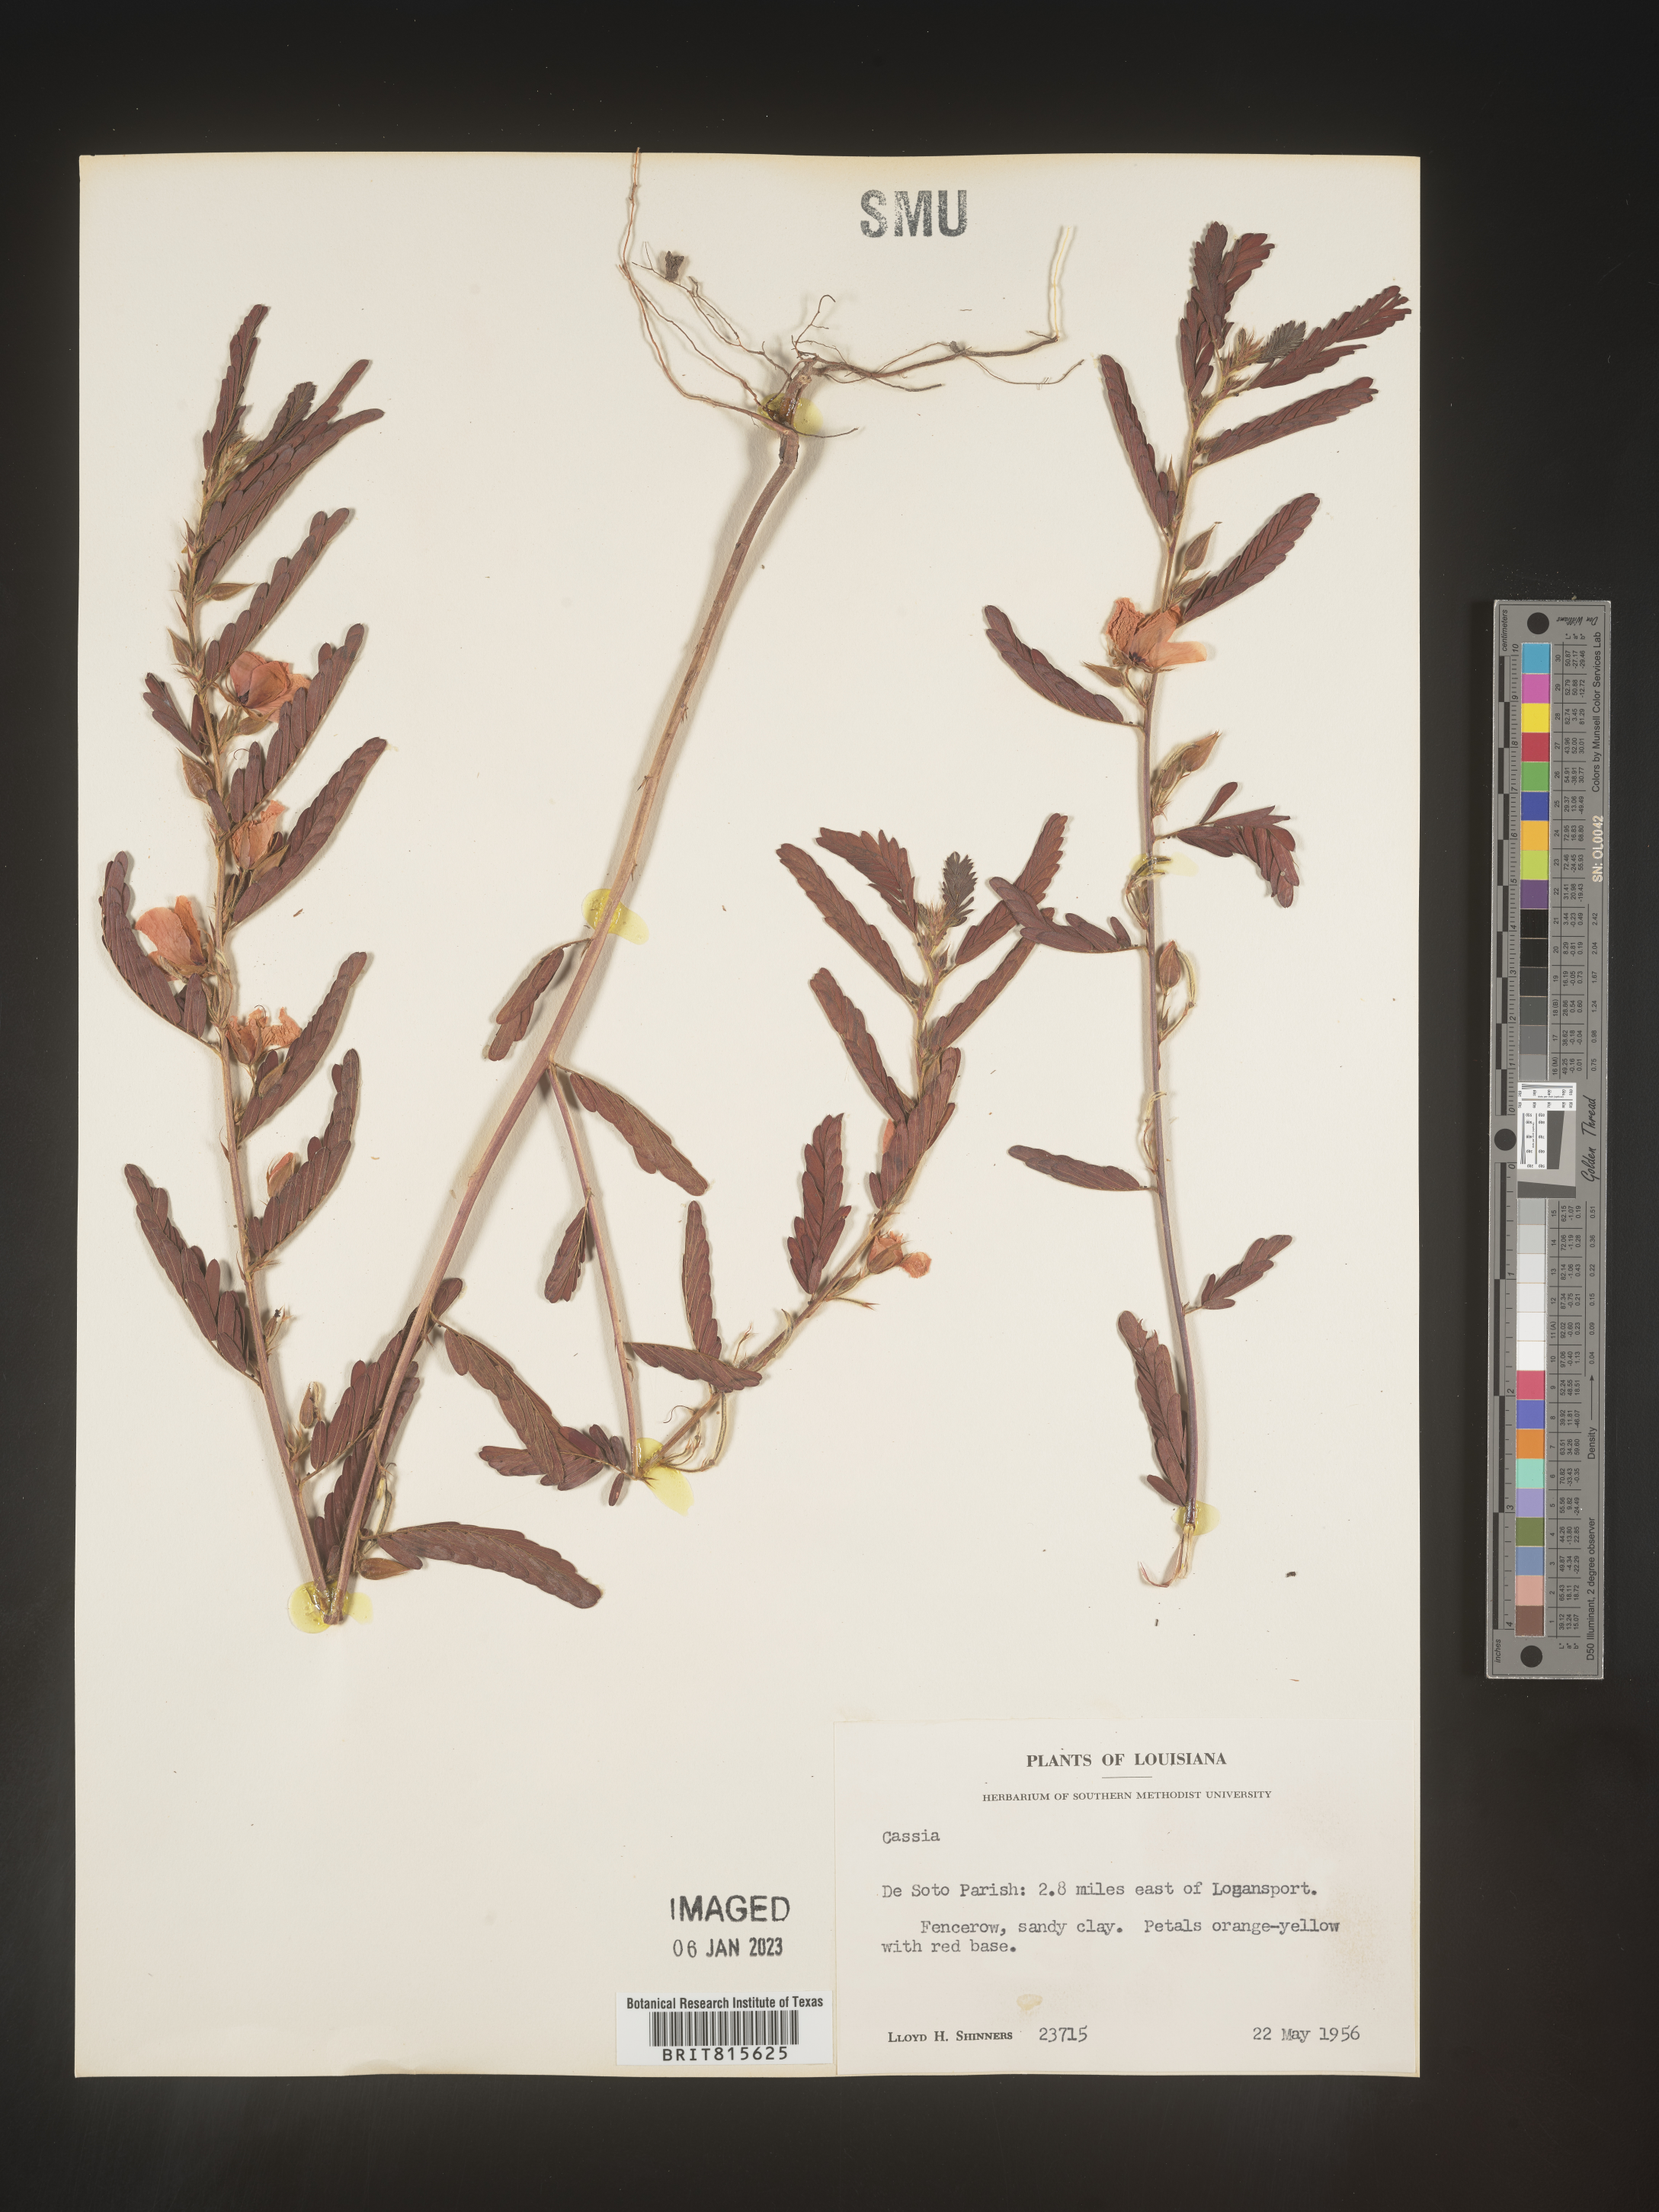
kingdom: Plantae
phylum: Tracheophyta
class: Magnoliopsida
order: Fabales
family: Fabaceae
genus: Cassia
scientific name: Cassia
